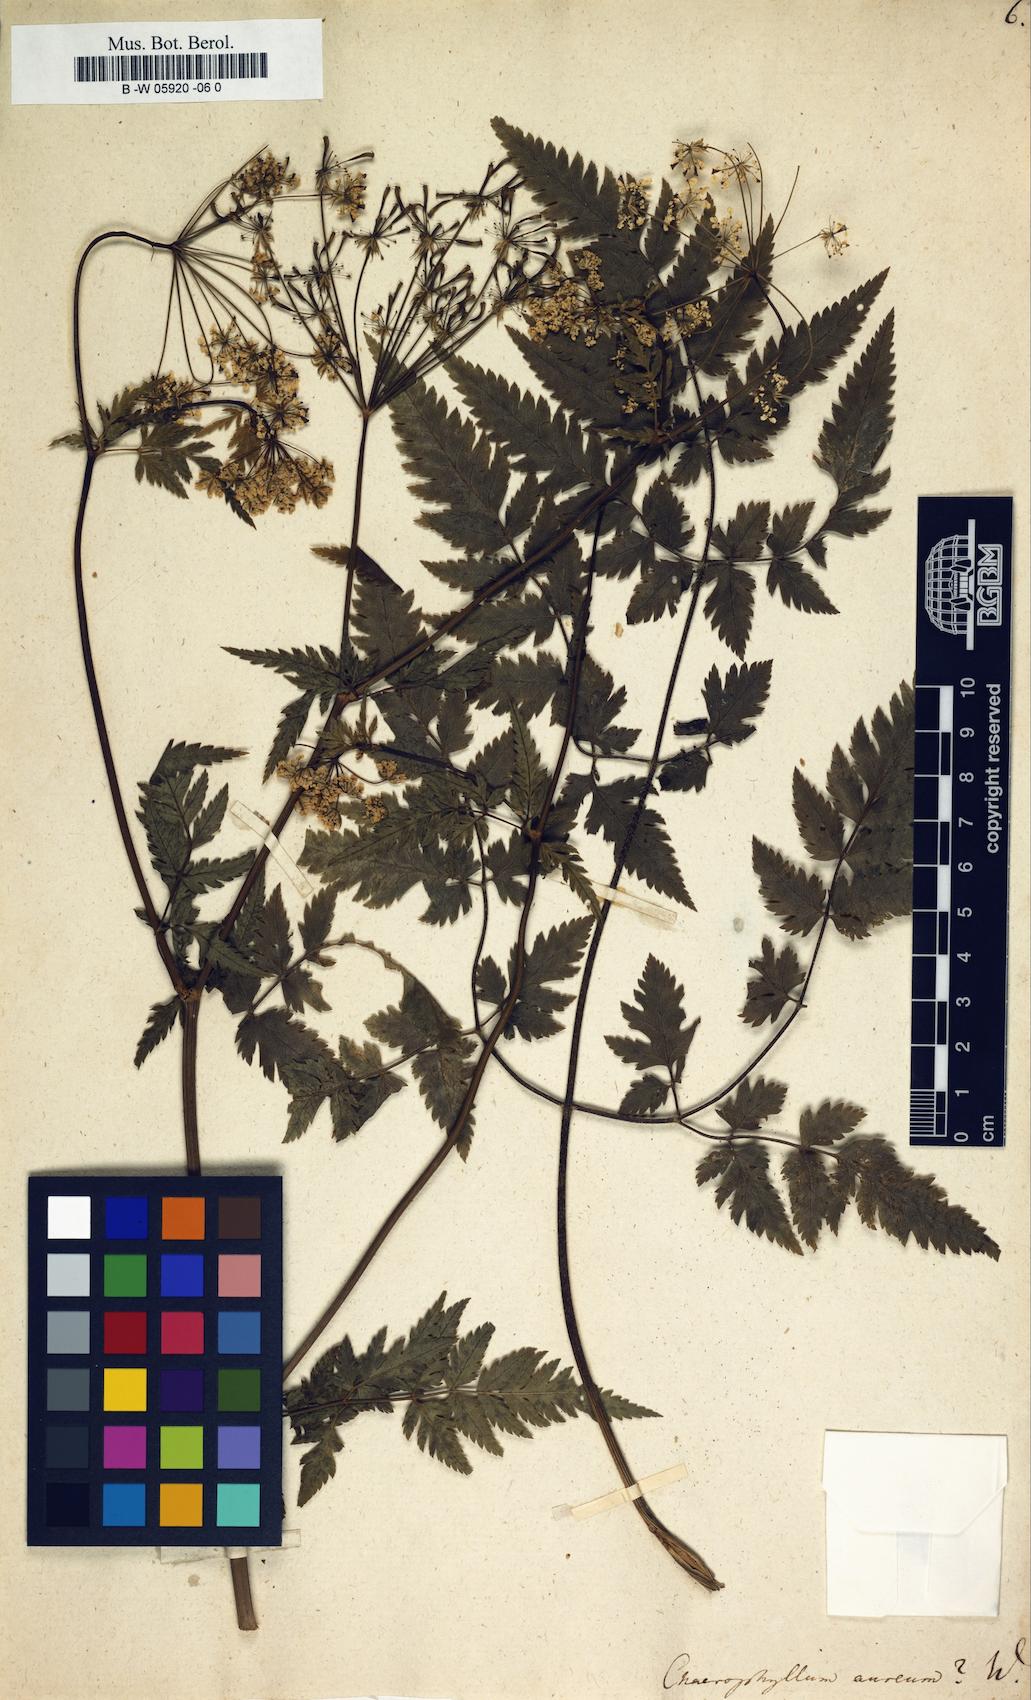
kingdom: Plantae
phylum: Tracheophyta
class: Magnoliopsida
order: Apiales
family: Apiaceae
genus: Chaerophyllum
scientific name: Chaerophyllum aureum
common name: Golden chervil
